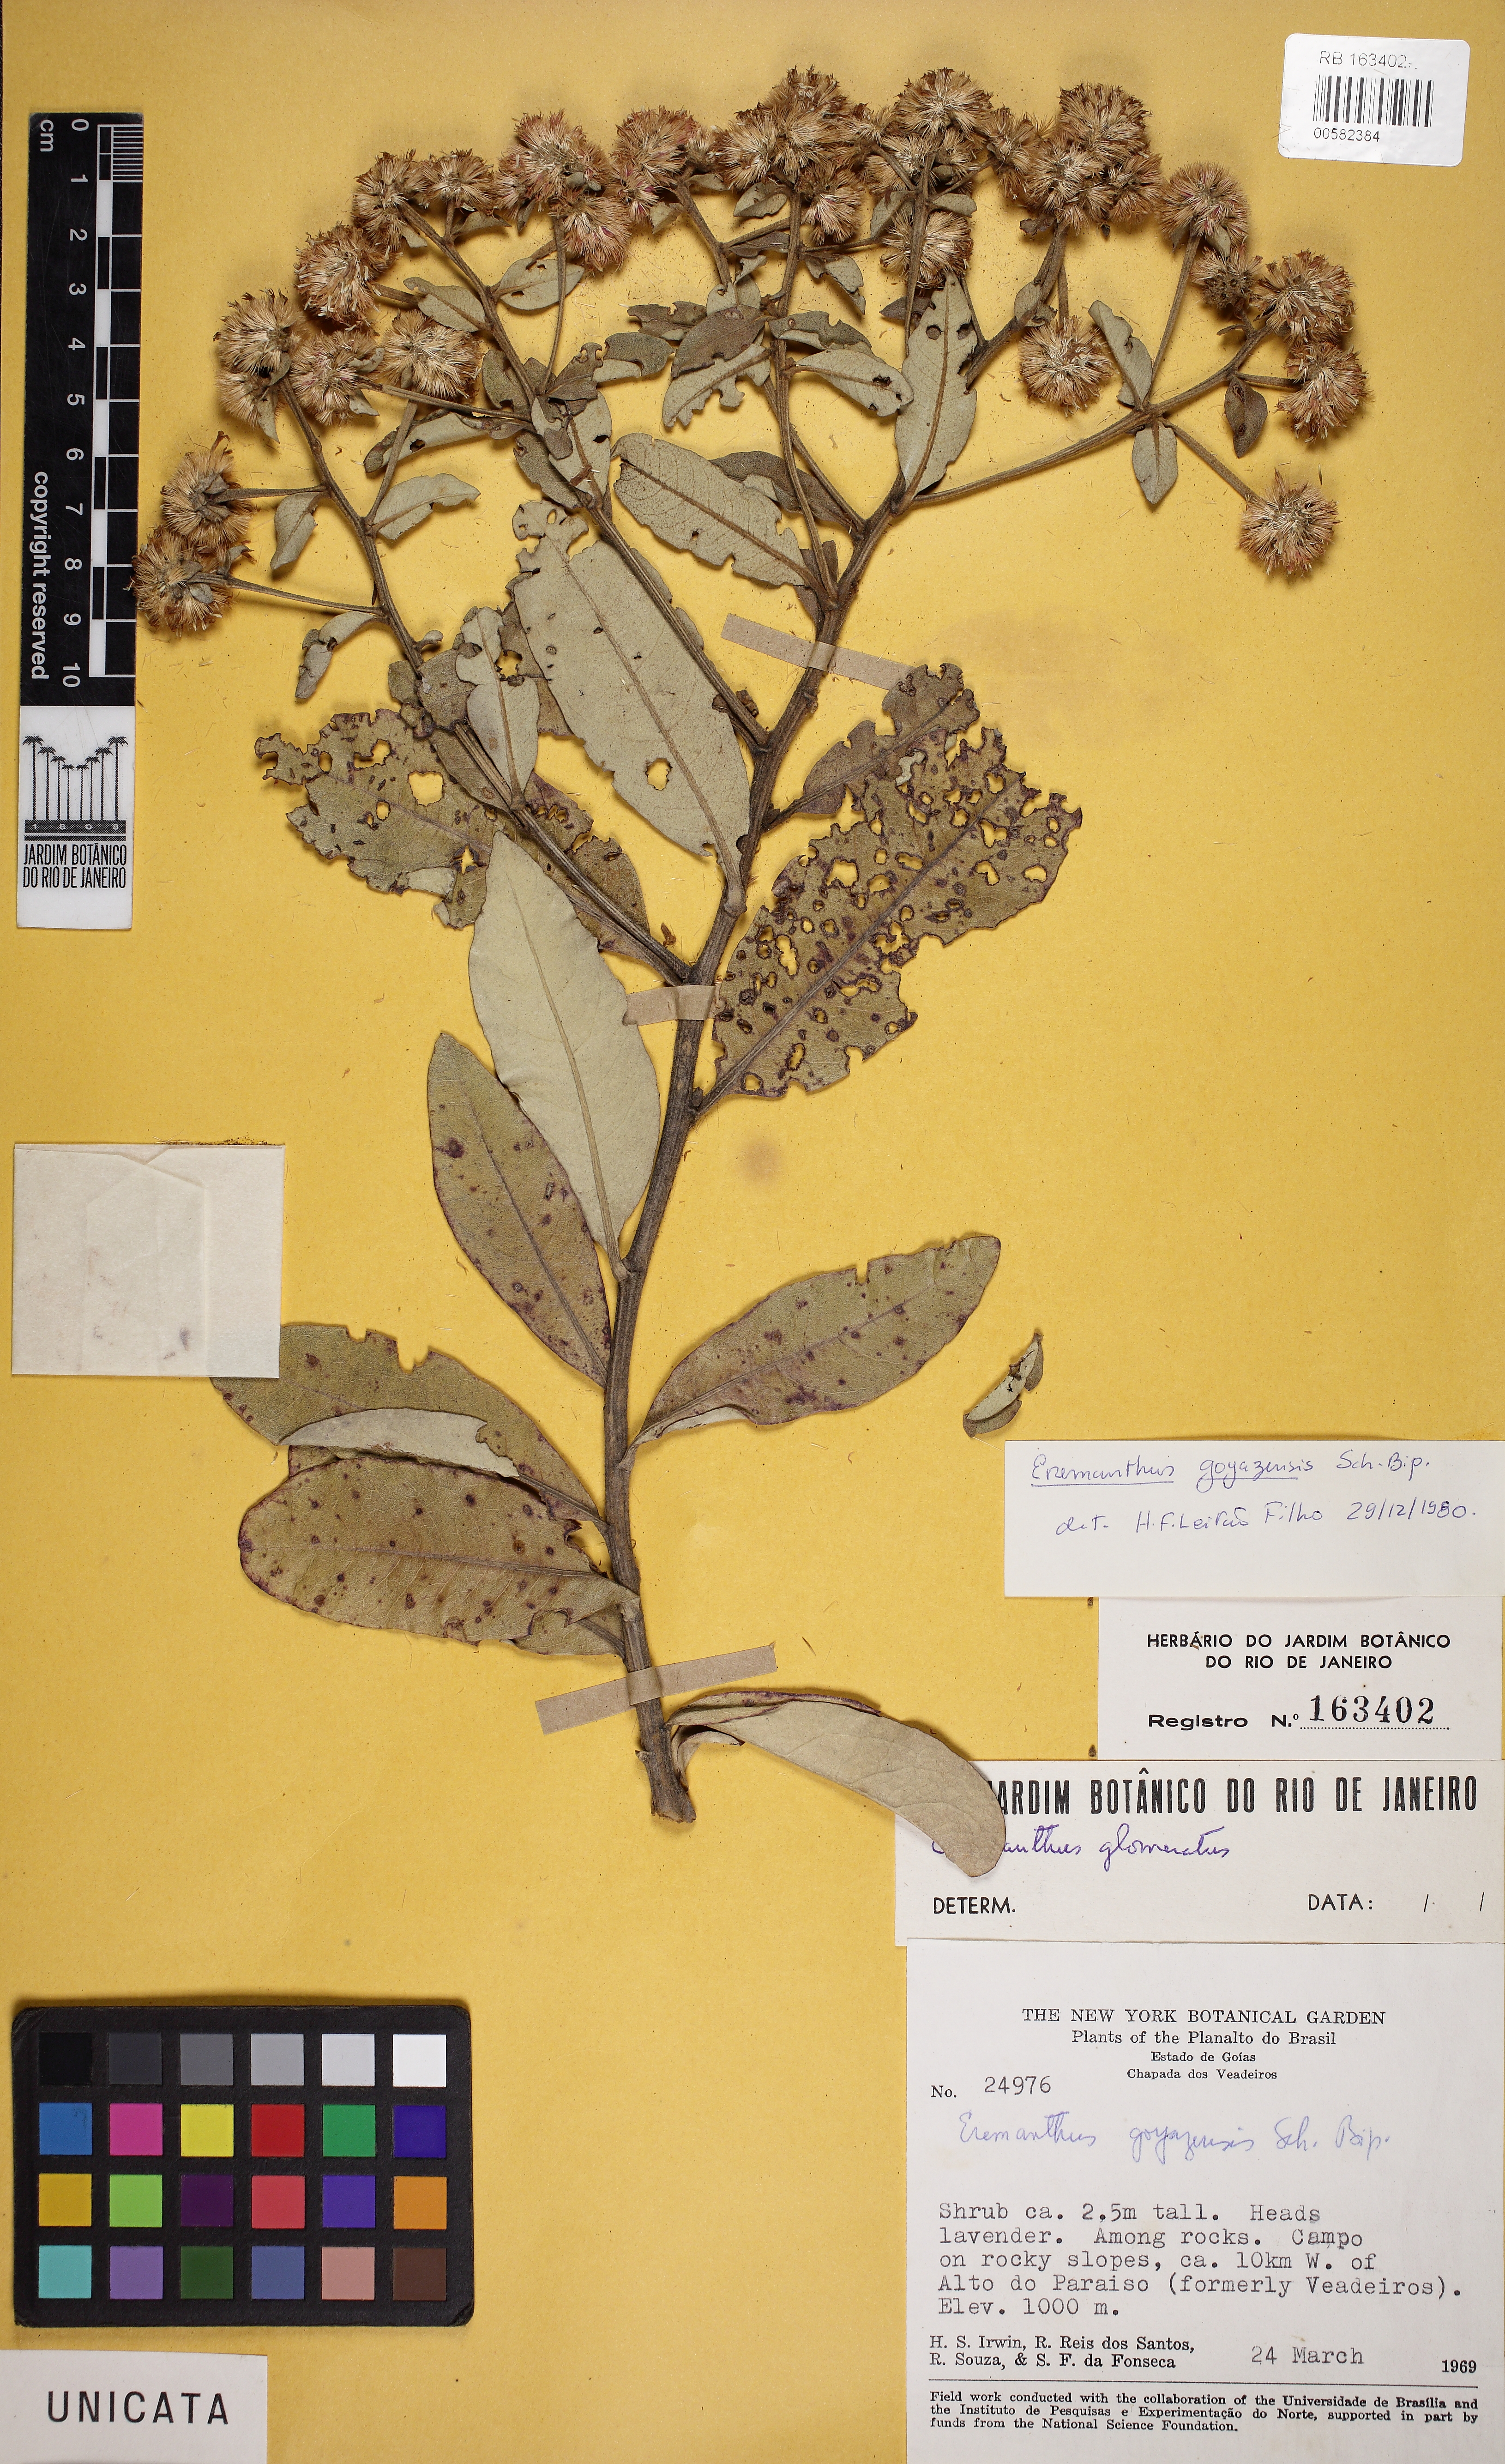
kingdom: Plantae
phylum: Tracheophyta
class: Magnoliopsida
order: Asterales
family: Asteraceae
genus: Eremanthus
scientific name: Eremanthus goyazensis
